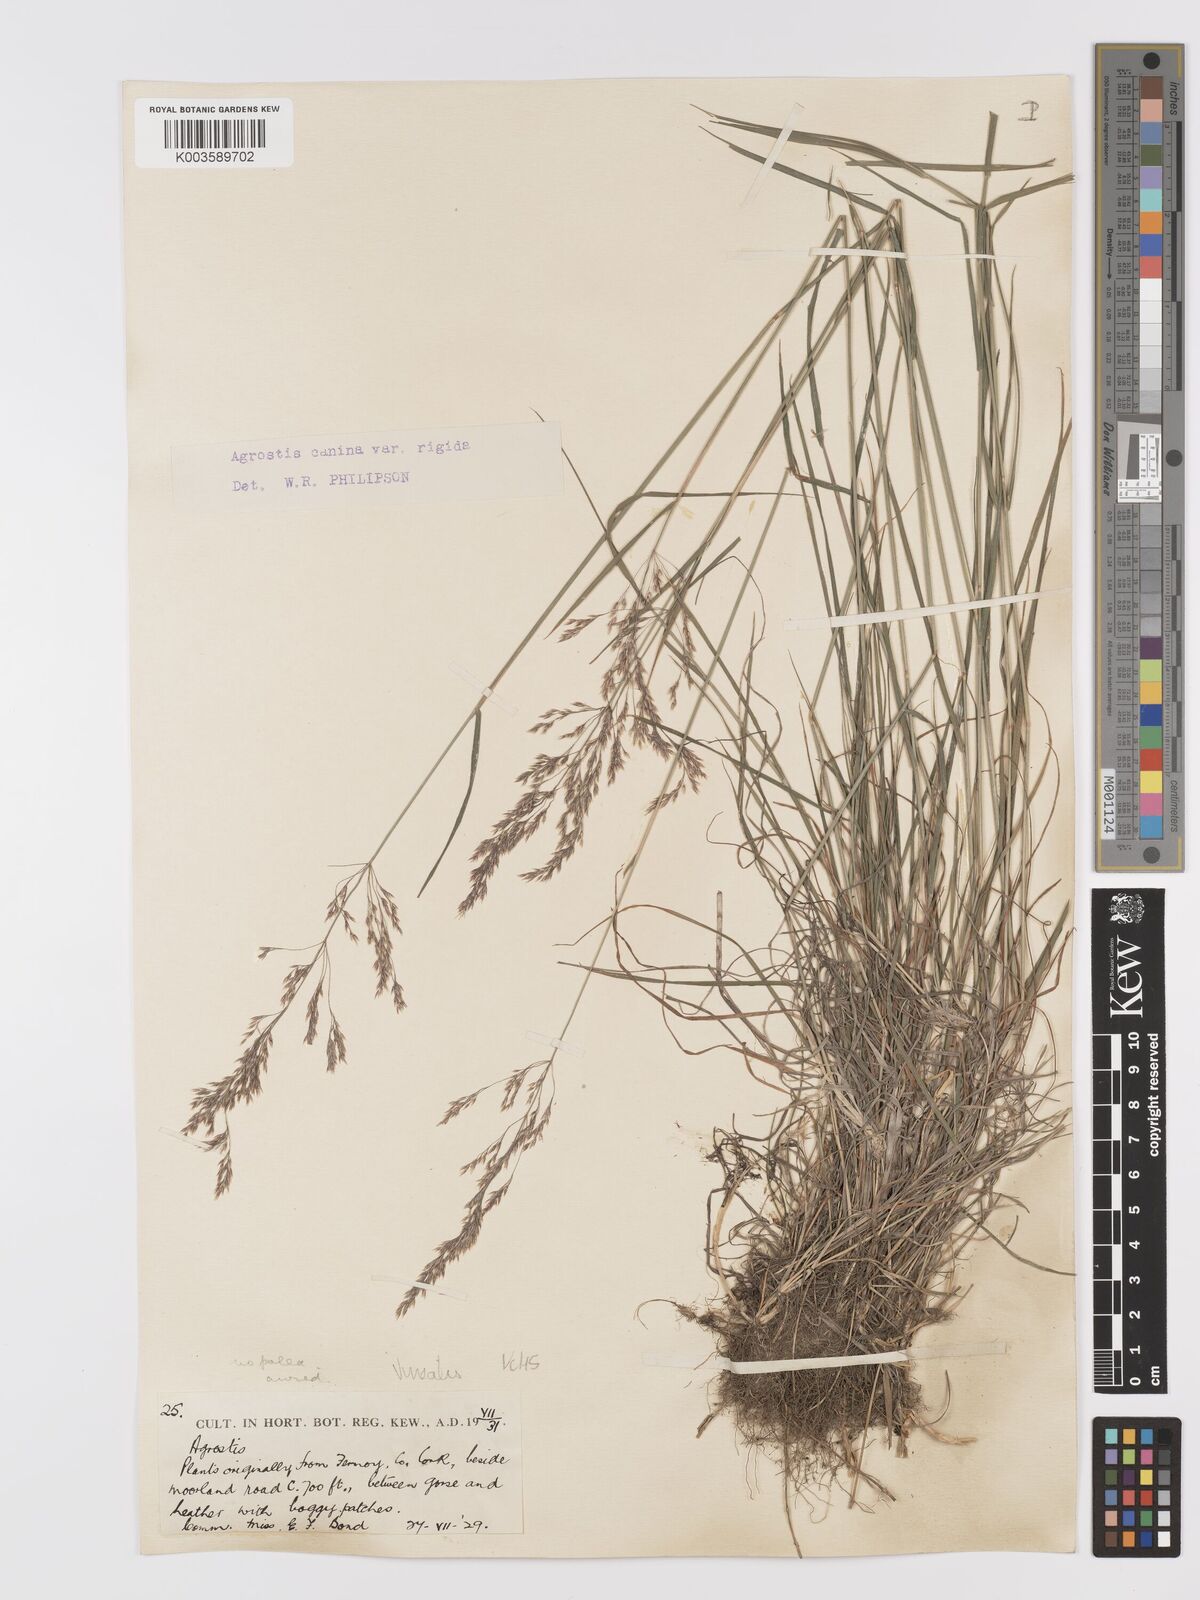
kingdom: Plantae
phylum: Tracheophyta
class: Liliopsida
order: Poales
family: Poaceae
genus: Agrostis
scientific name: Agrostis
